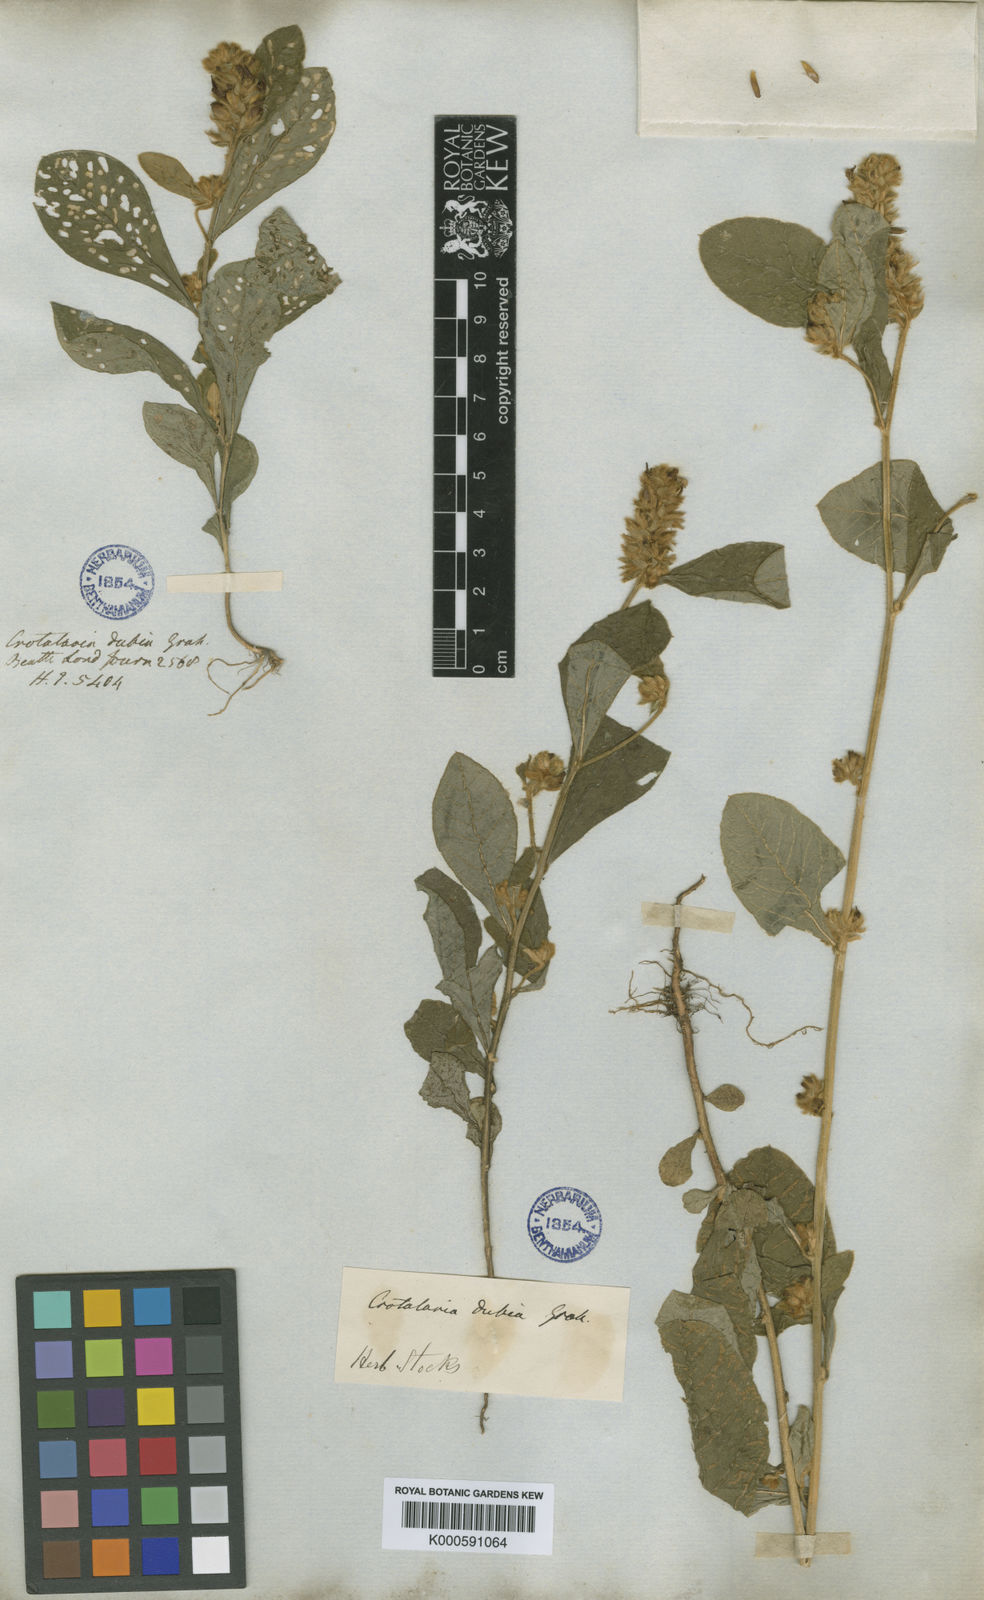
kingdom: Plantae
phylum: Tracheophyta
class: Magnoliopsida
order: Fabales
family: Fabaceae
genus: Crotalaria
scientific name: Crotalaria
